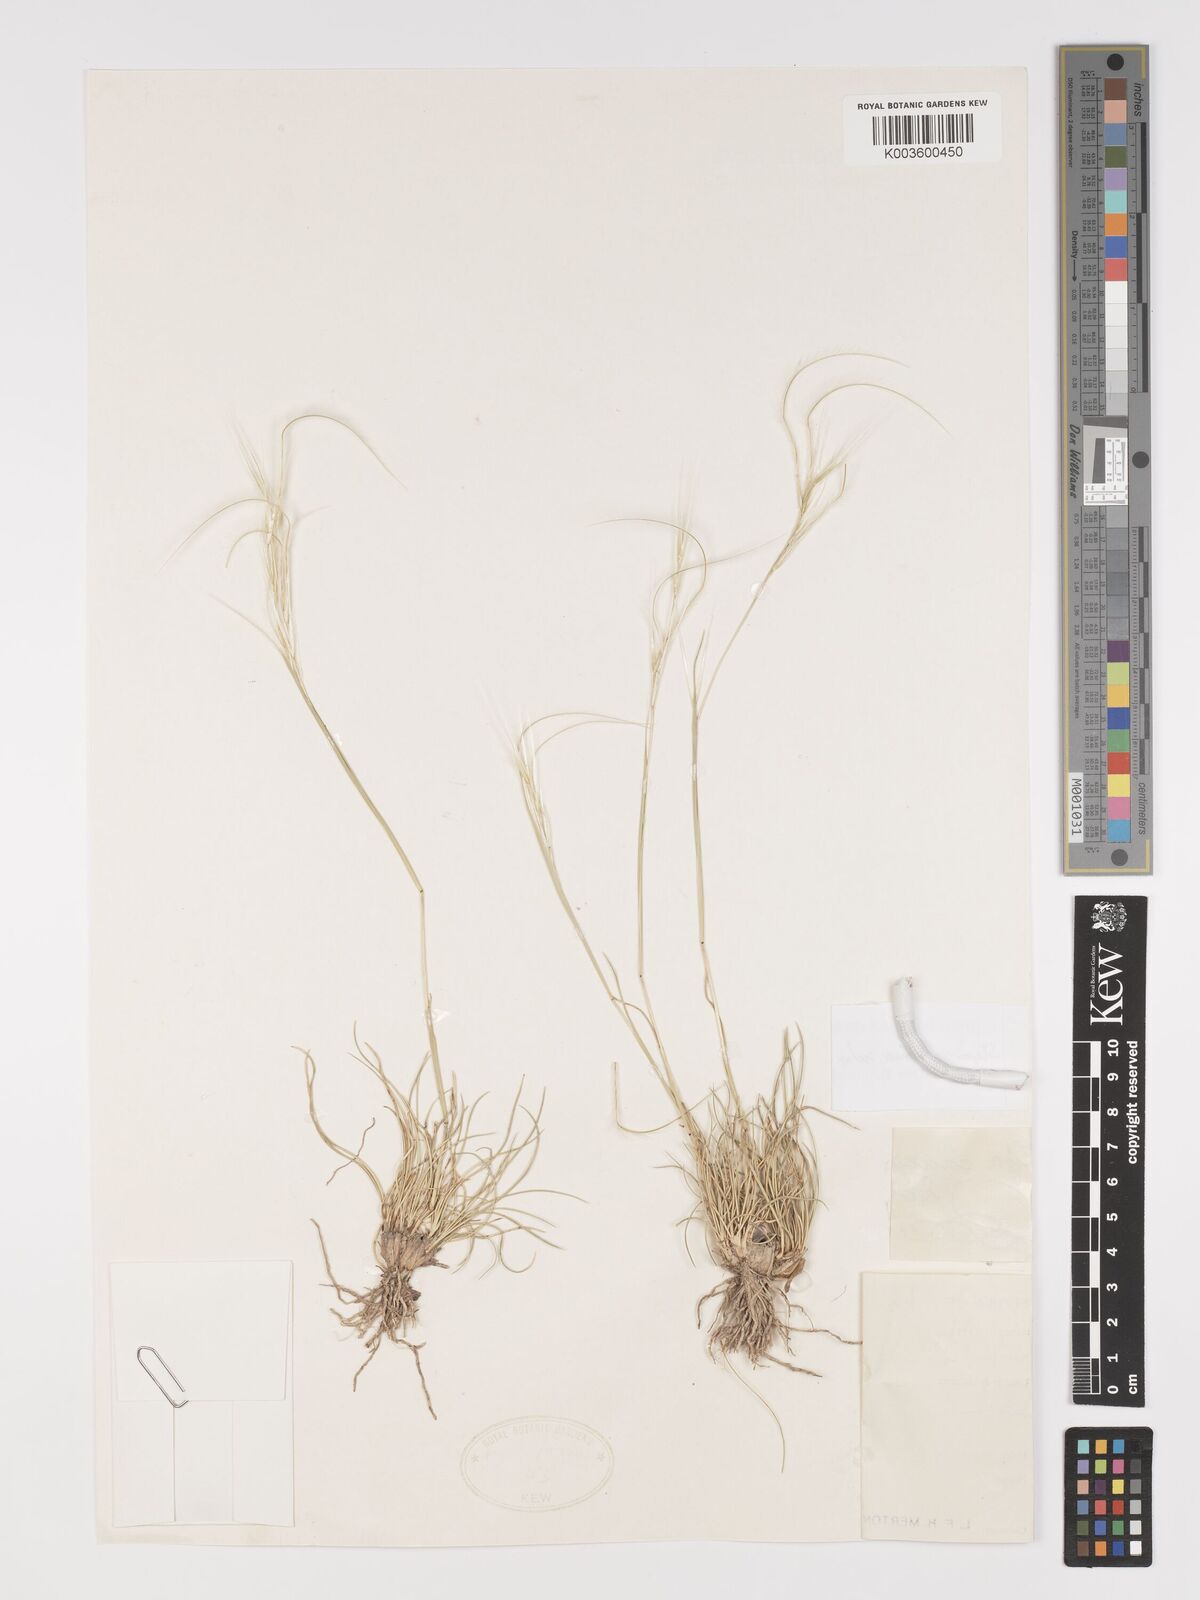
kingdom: Plantae
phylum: Tracheophyta
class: Liliopsida
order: Poales
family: Poaceae
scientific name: Poaceae
